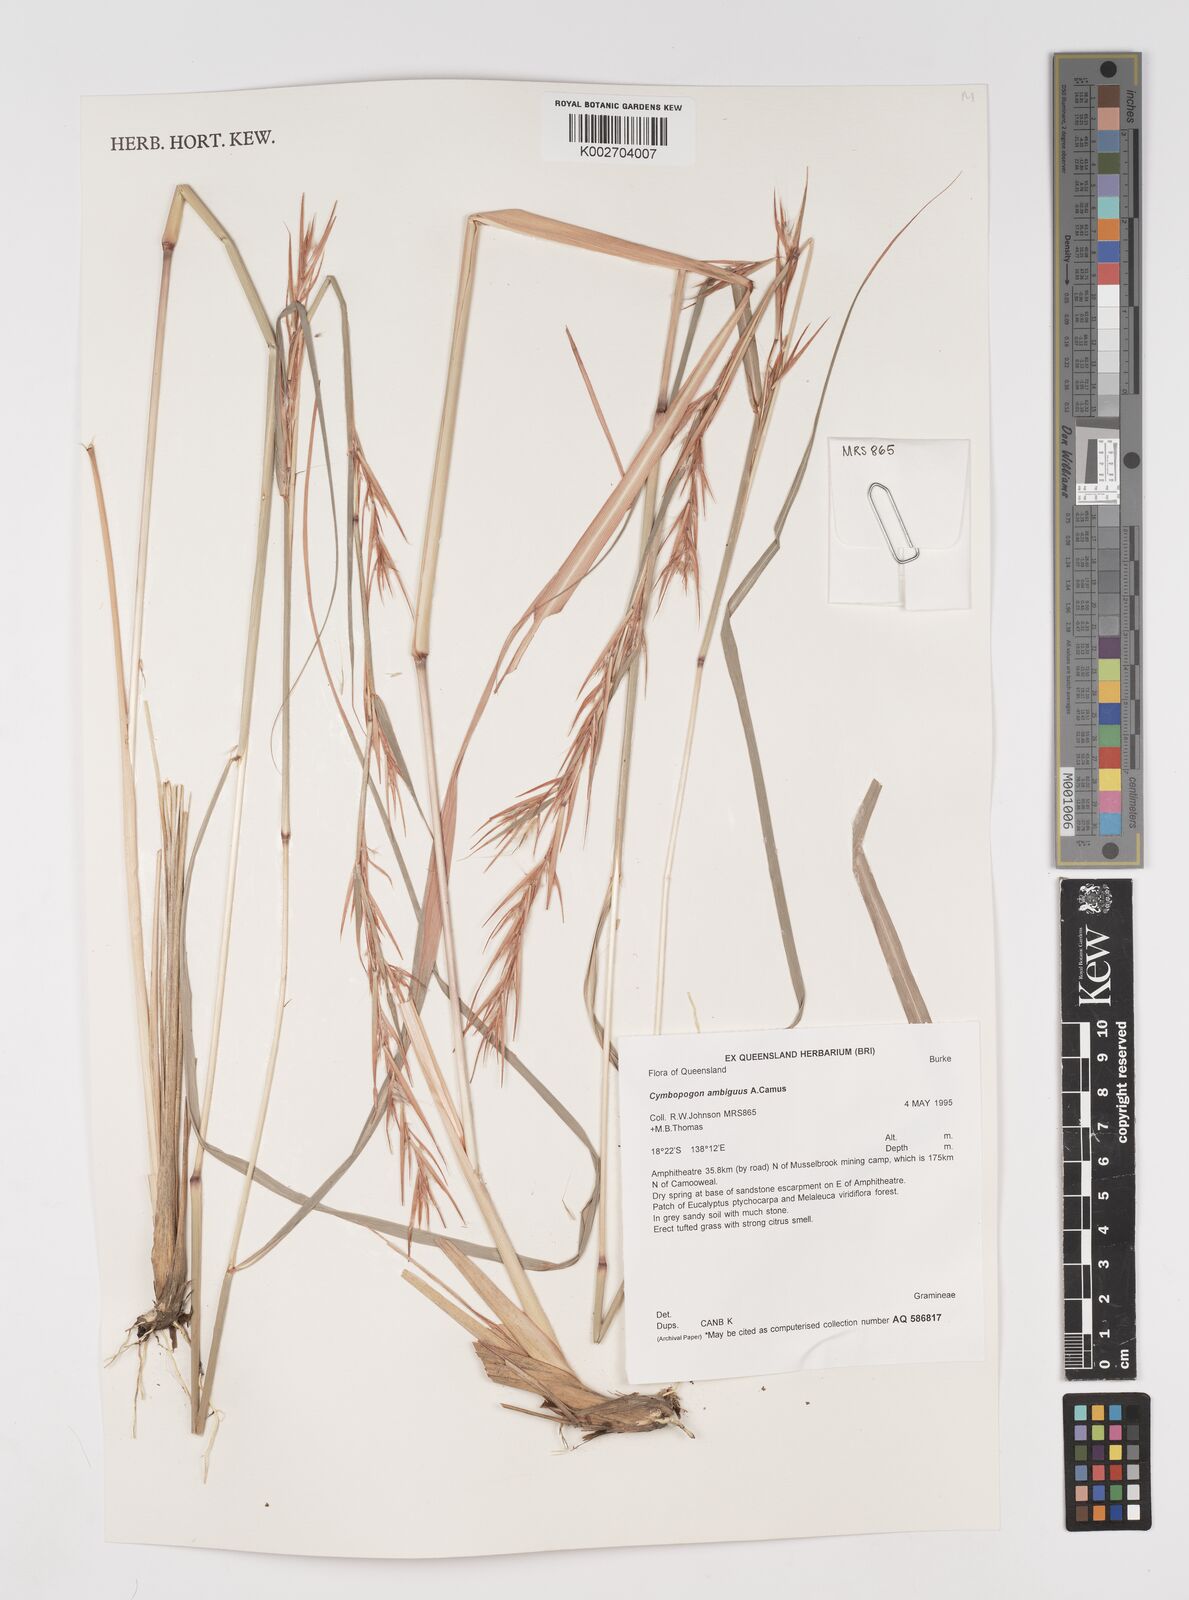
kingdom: Plantae
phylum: Tracheophyta
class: Liliopsida
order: Poales
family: Poaceae
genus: Cymbopogon
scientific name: Cymbopogon ambiguus
